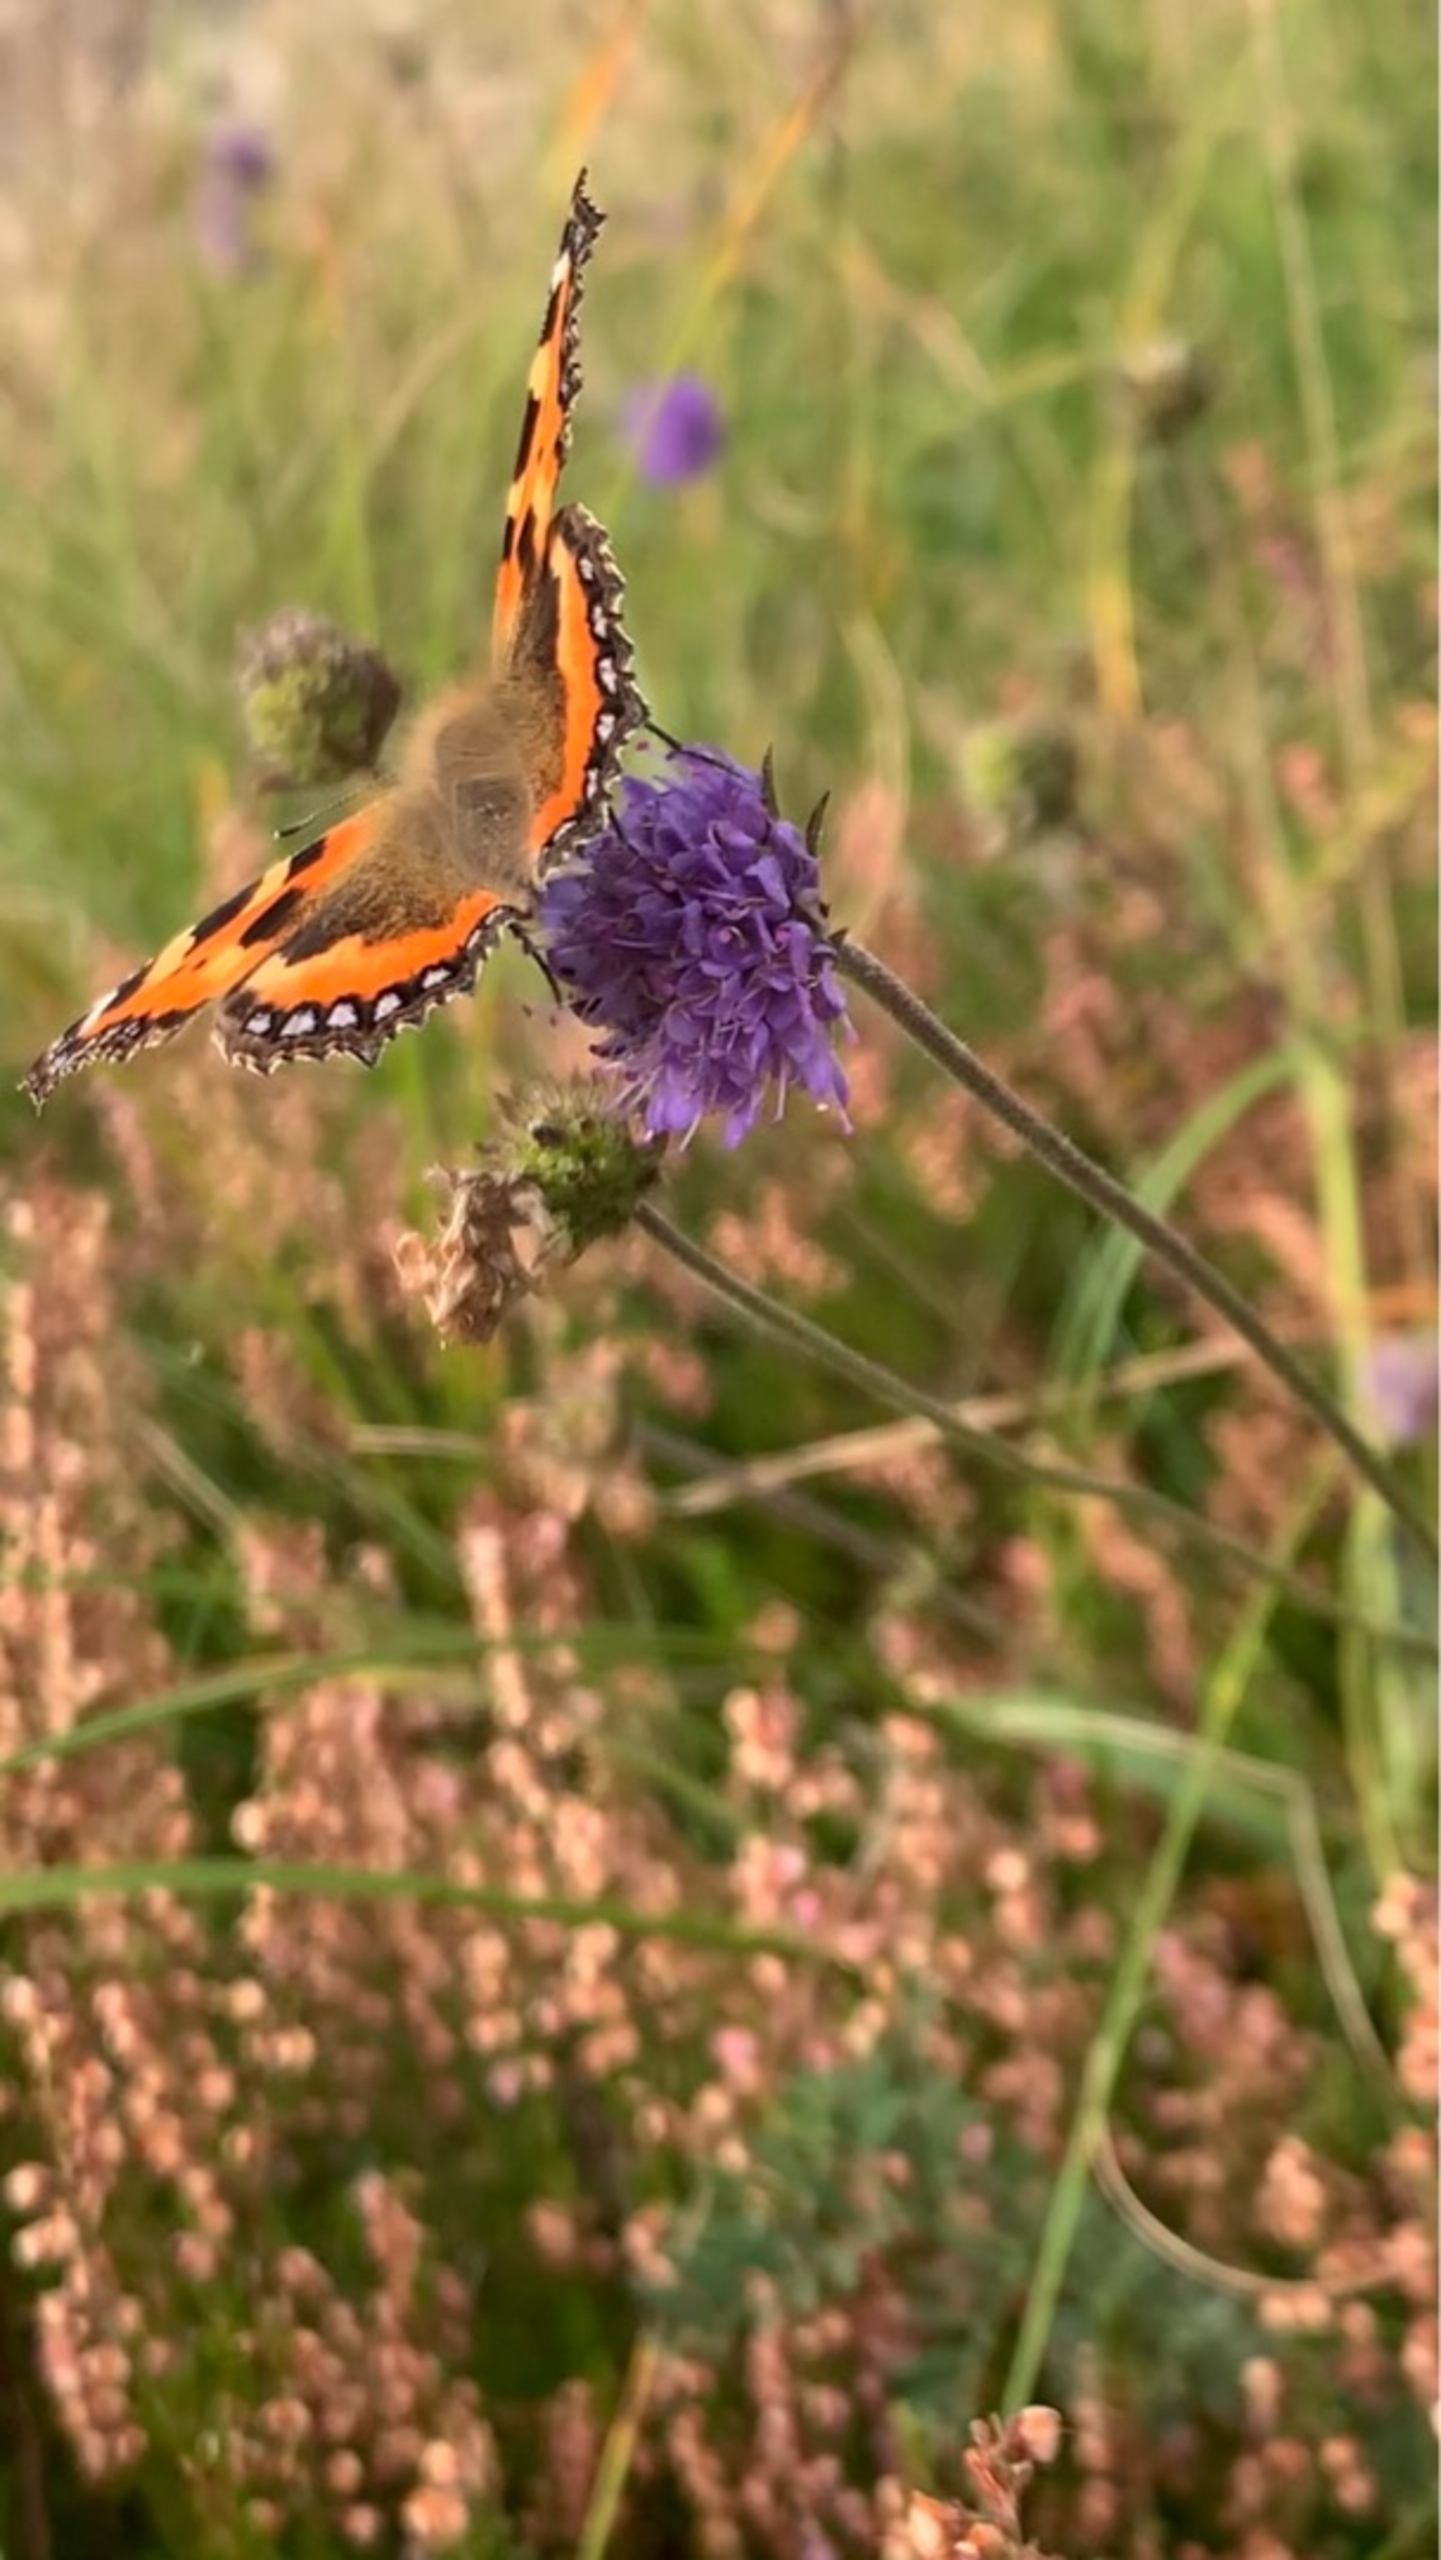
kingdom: Animalia
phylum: Arthropoda
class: Insecta
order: Lepidoptera
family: Nymphalidae
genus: Aglais
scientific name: Aglais urticae
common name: Nældens takvinge
